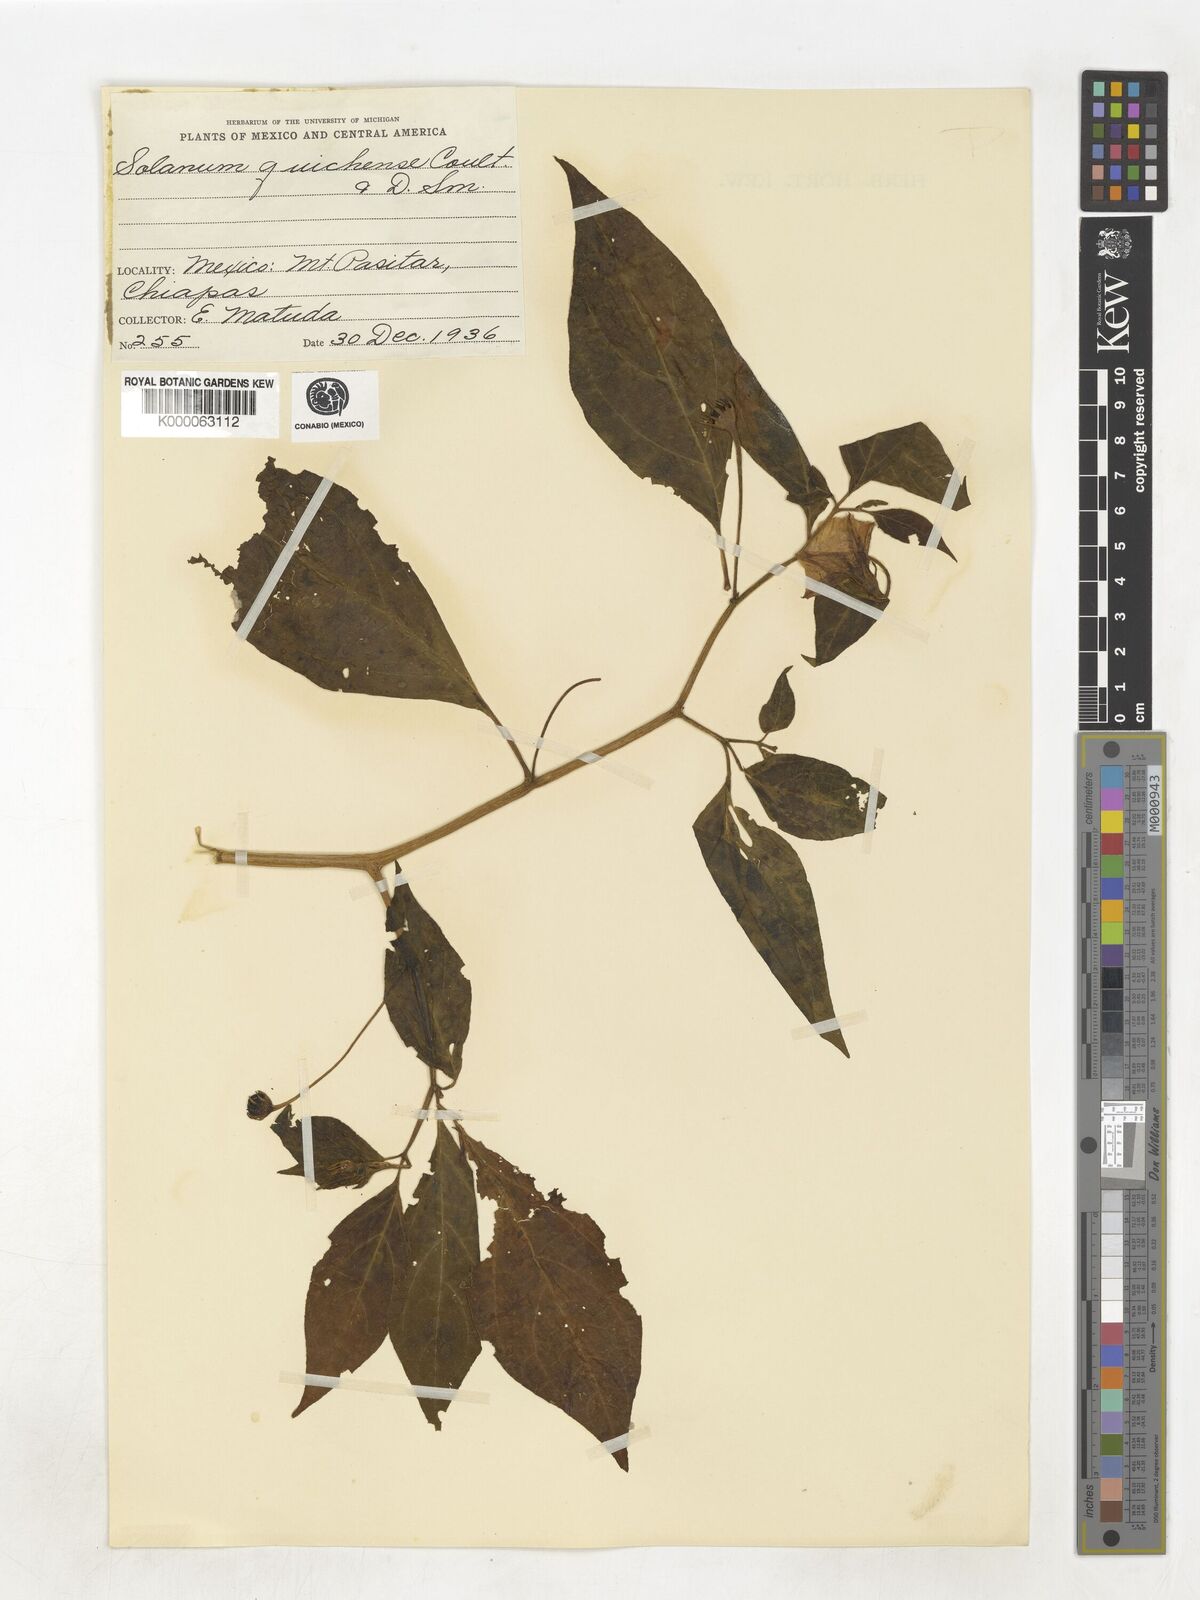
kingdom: Plantae
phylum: Tracheophyta
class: Magnoliopsida
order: Solanales
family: Solanaceae
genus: Solanum
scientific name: Solanum
